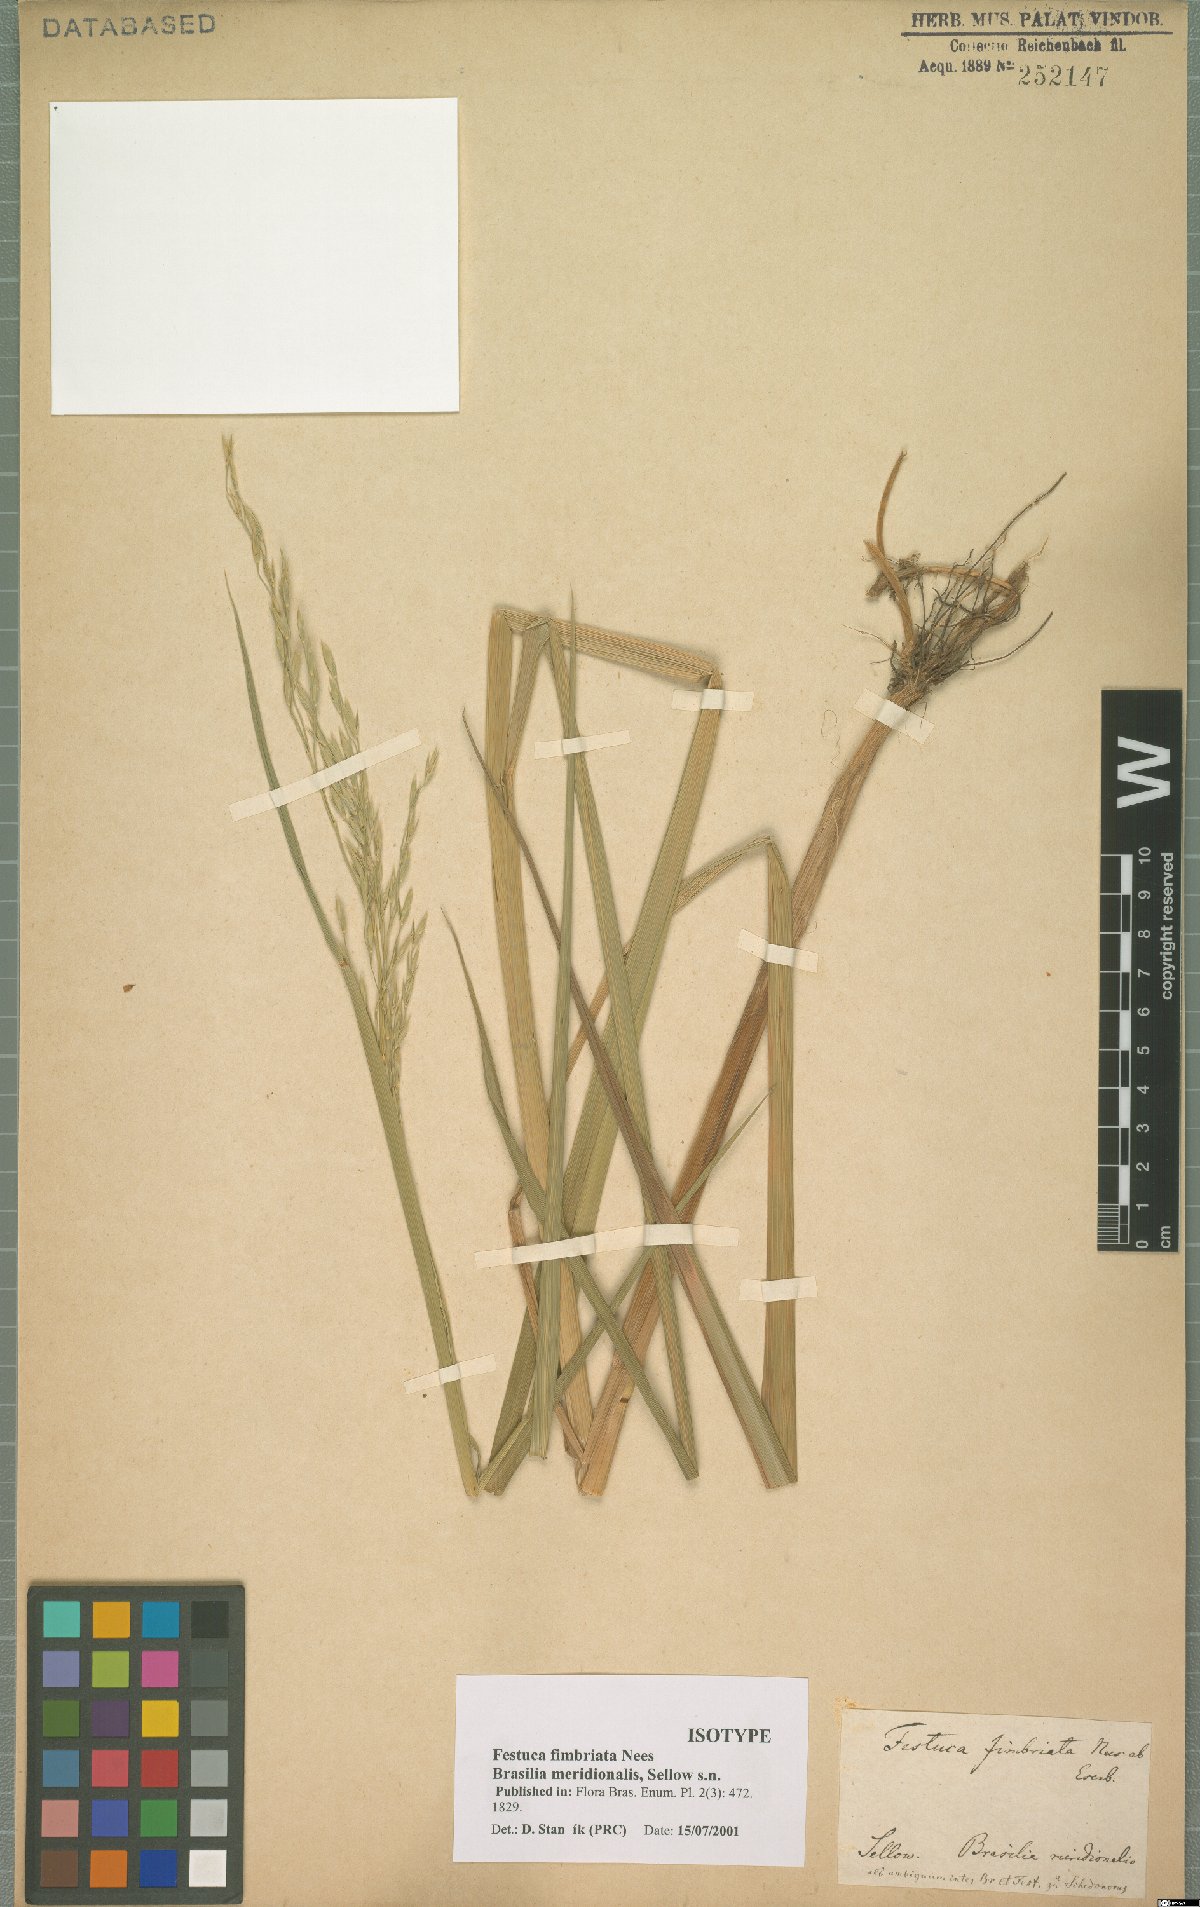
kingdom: Plantae
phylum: Tracheophyta
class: Liliopsida
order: Poales
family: Poaceae
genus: Festuca
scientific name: Festuca fimbriata
